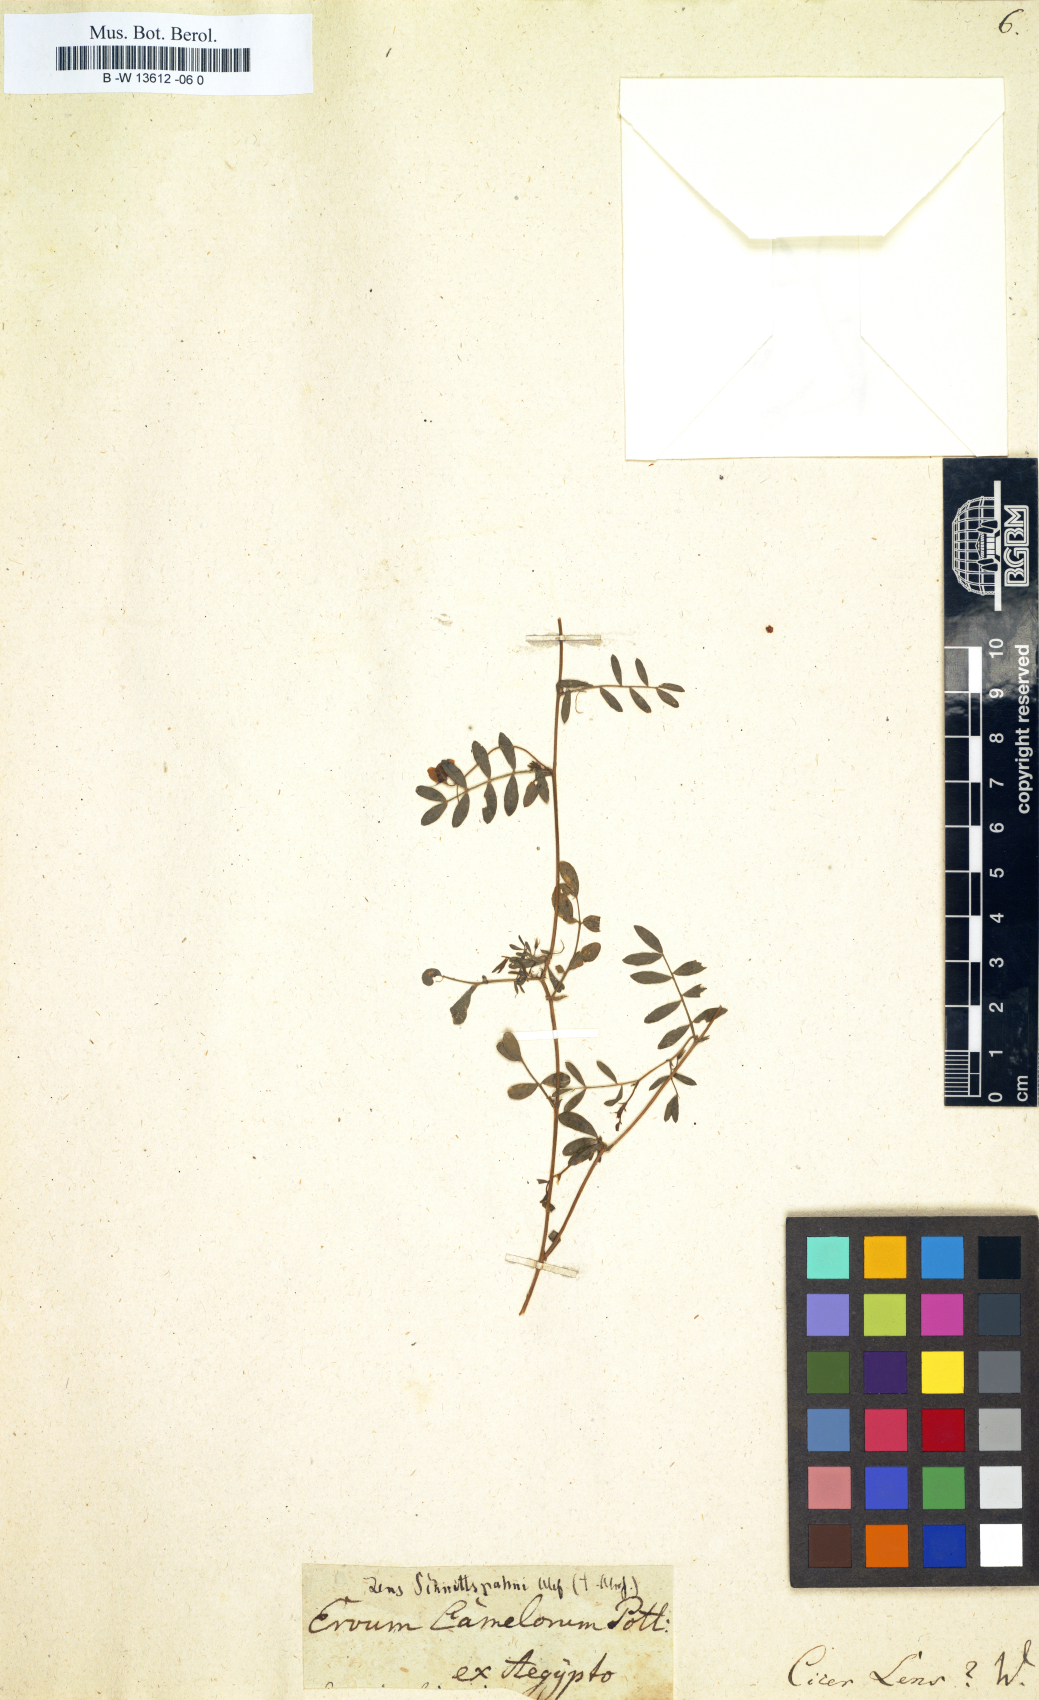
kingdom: Plantae
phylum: Tracheophyta
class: Magnoliopsida
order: Fabales
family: Fabaceae
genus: Vicia
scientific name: Vicia lens
